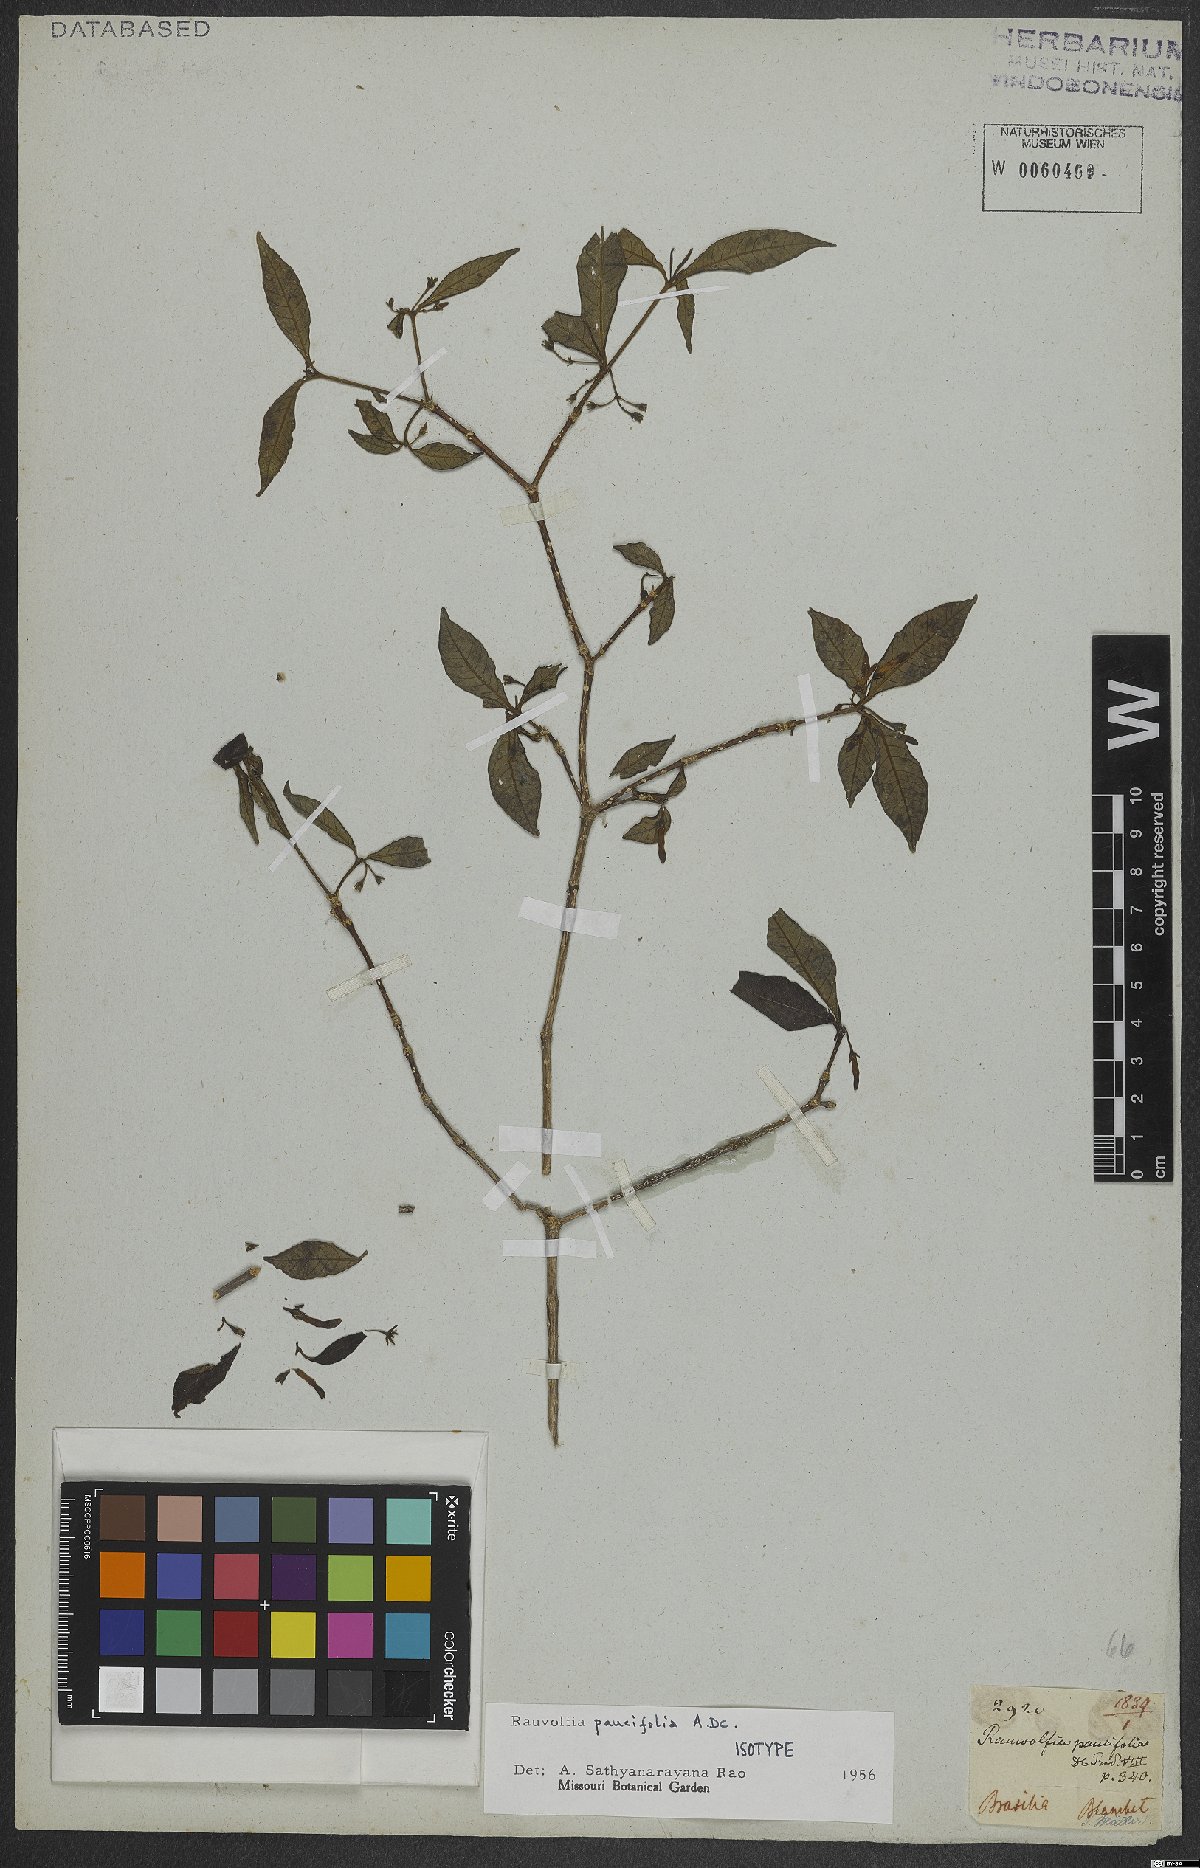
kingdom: Plantae
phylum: Tracheophyta
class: Magnoliopsida
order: Gentianales
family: Apocynaceae
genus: Rauvolfia
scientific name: Rauvolfia paucifolia
